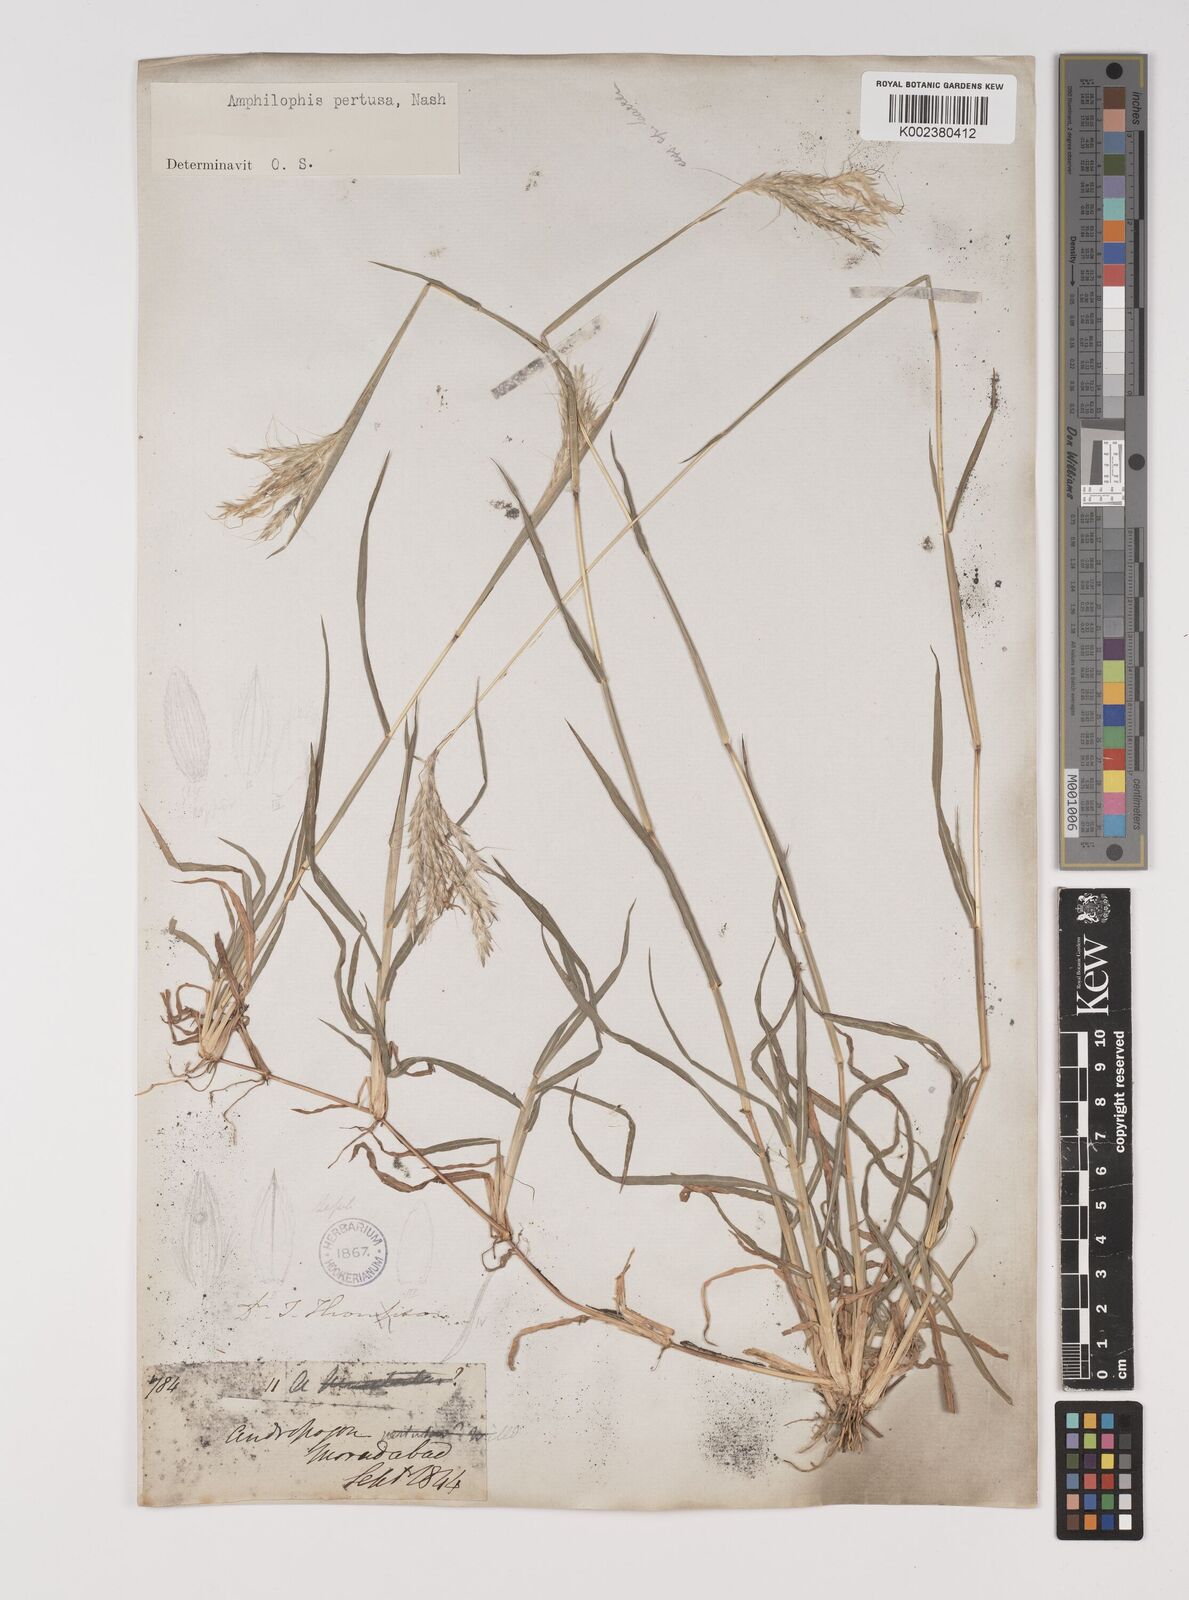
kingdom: Plantae
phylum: Tracheophyta
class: Liliopsida
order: Poales
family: Poaceae
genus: Bothriochloa
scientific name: Bothriochloa pertusa
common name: Pitted beardgrass
